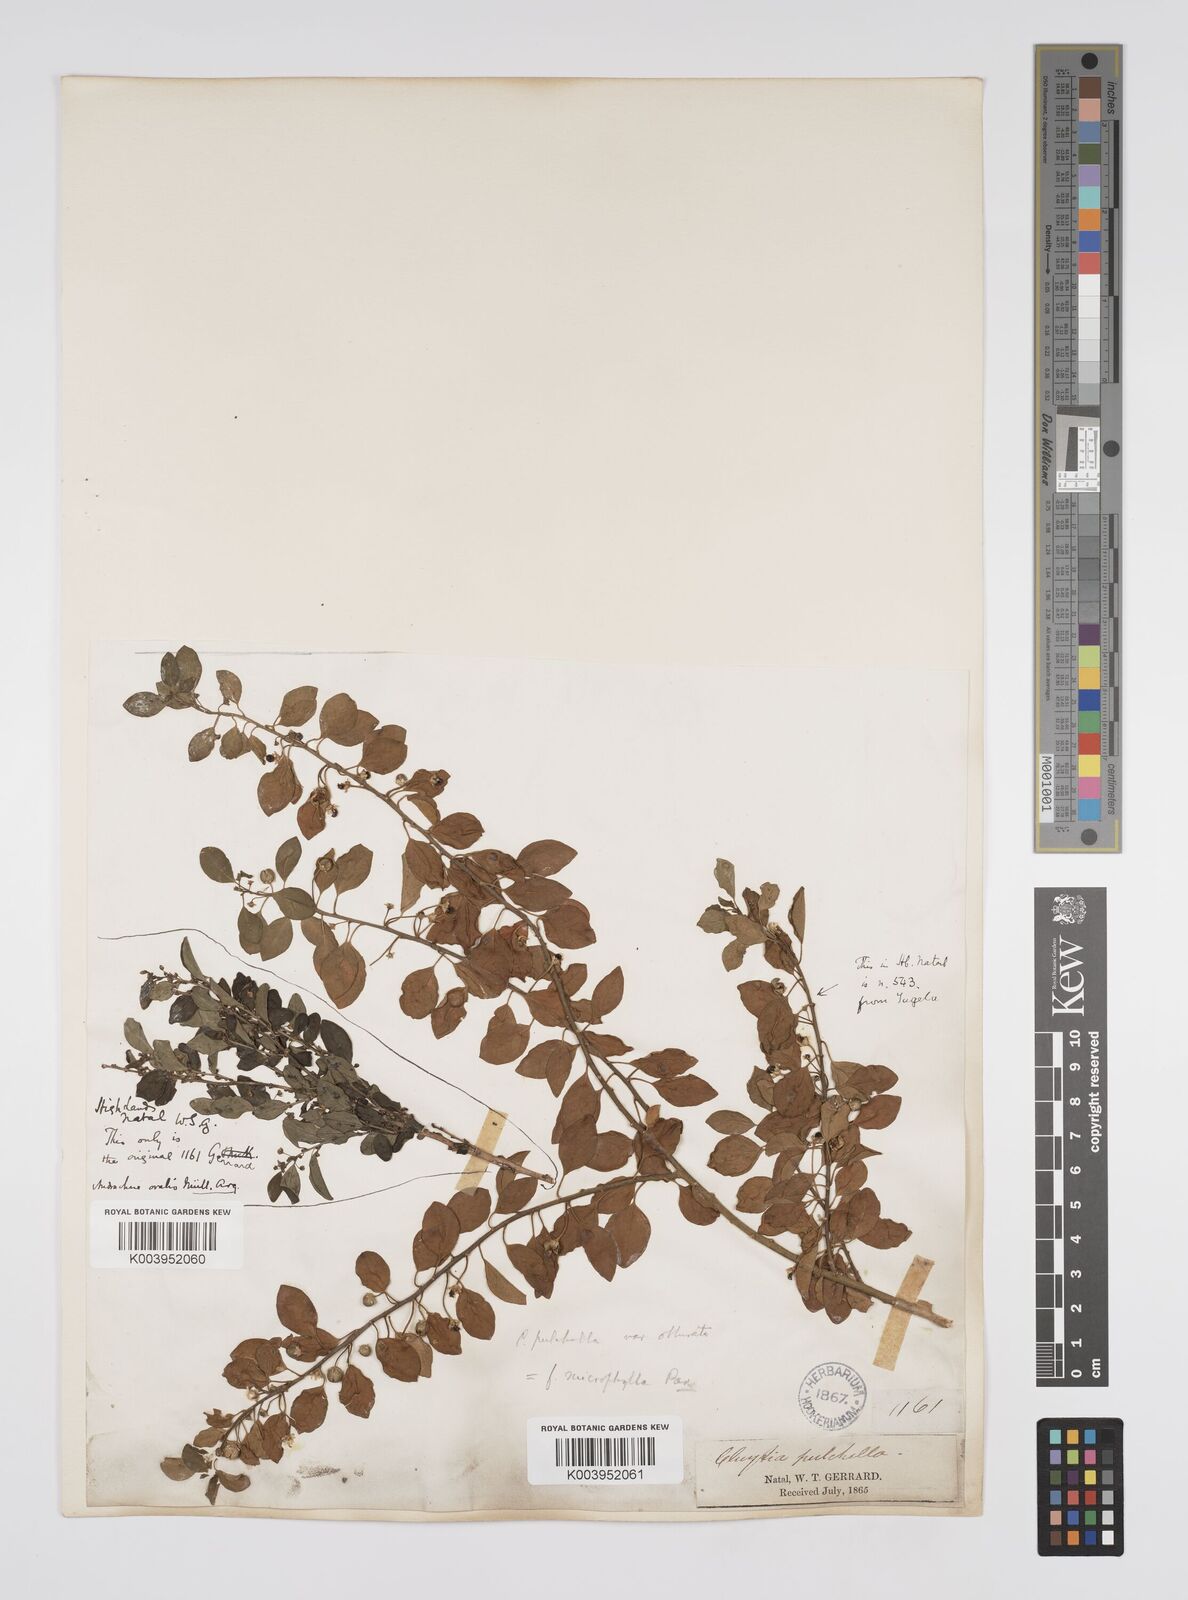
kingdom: Plantae
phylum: Tracheophyta
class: Magnoliopsida
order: Malpighiales
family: Peraceae
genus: Clutia
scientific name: Clutia pulchella
